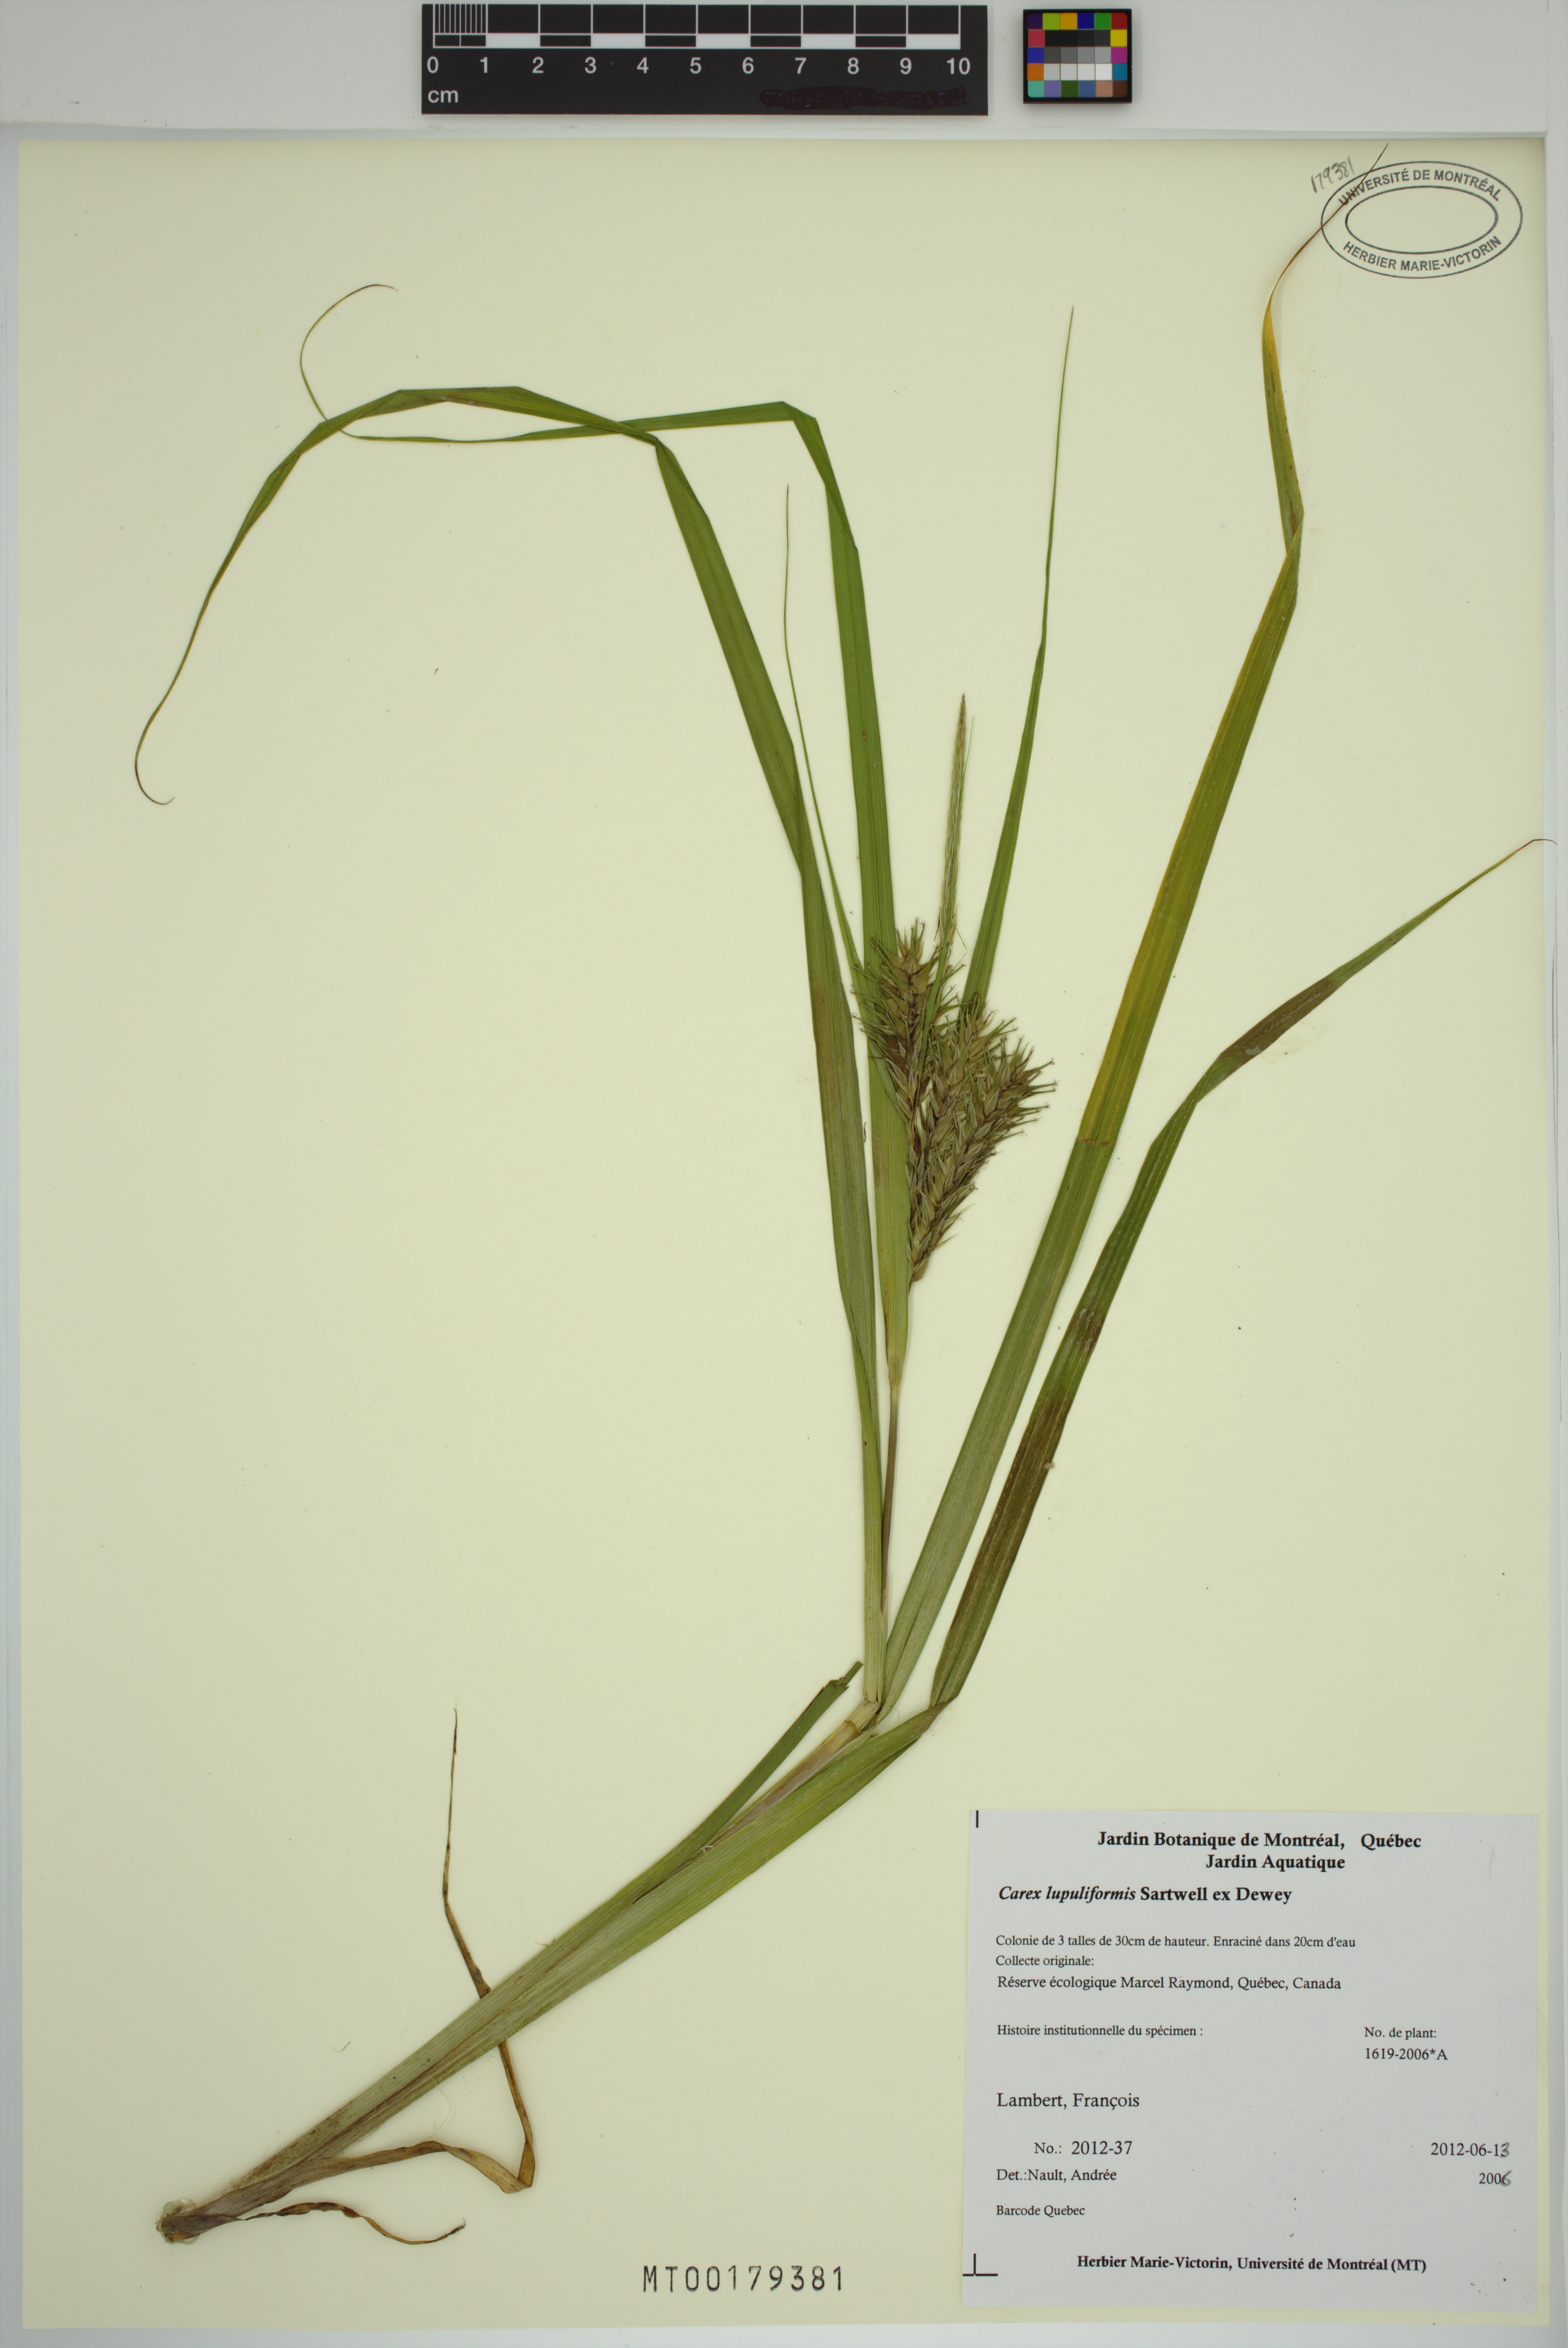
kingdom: Plantae
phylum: Tracheophyta
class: Liliopsida
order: Poales
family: Cyperaceae
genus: Carex
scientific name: Carex lupuliformis
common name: False hop sedge
